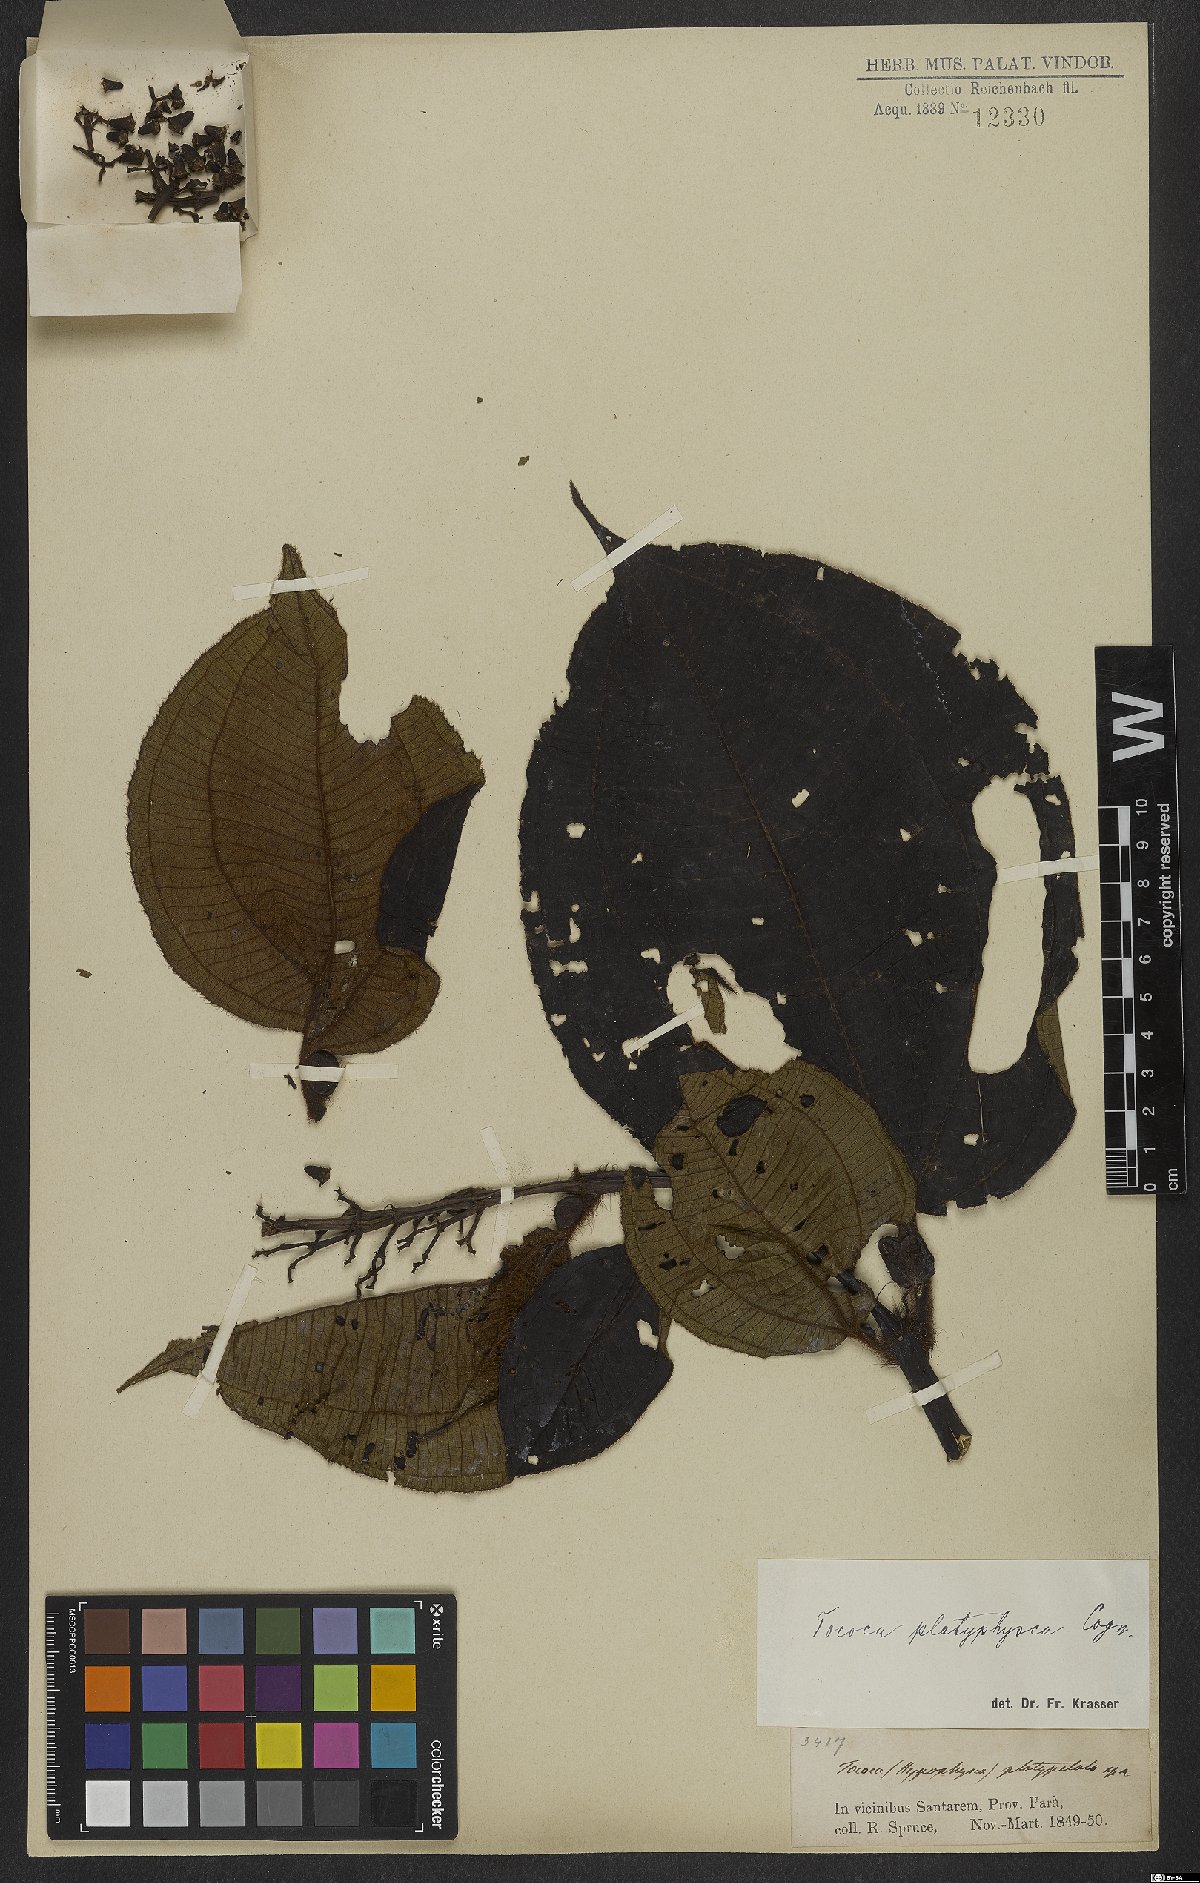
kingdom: Plantae
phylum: Tracheophyta
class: Magnoliopsida
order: Myrtales
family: Melastomataceae
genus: Miconia
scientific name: Miconia tococa
